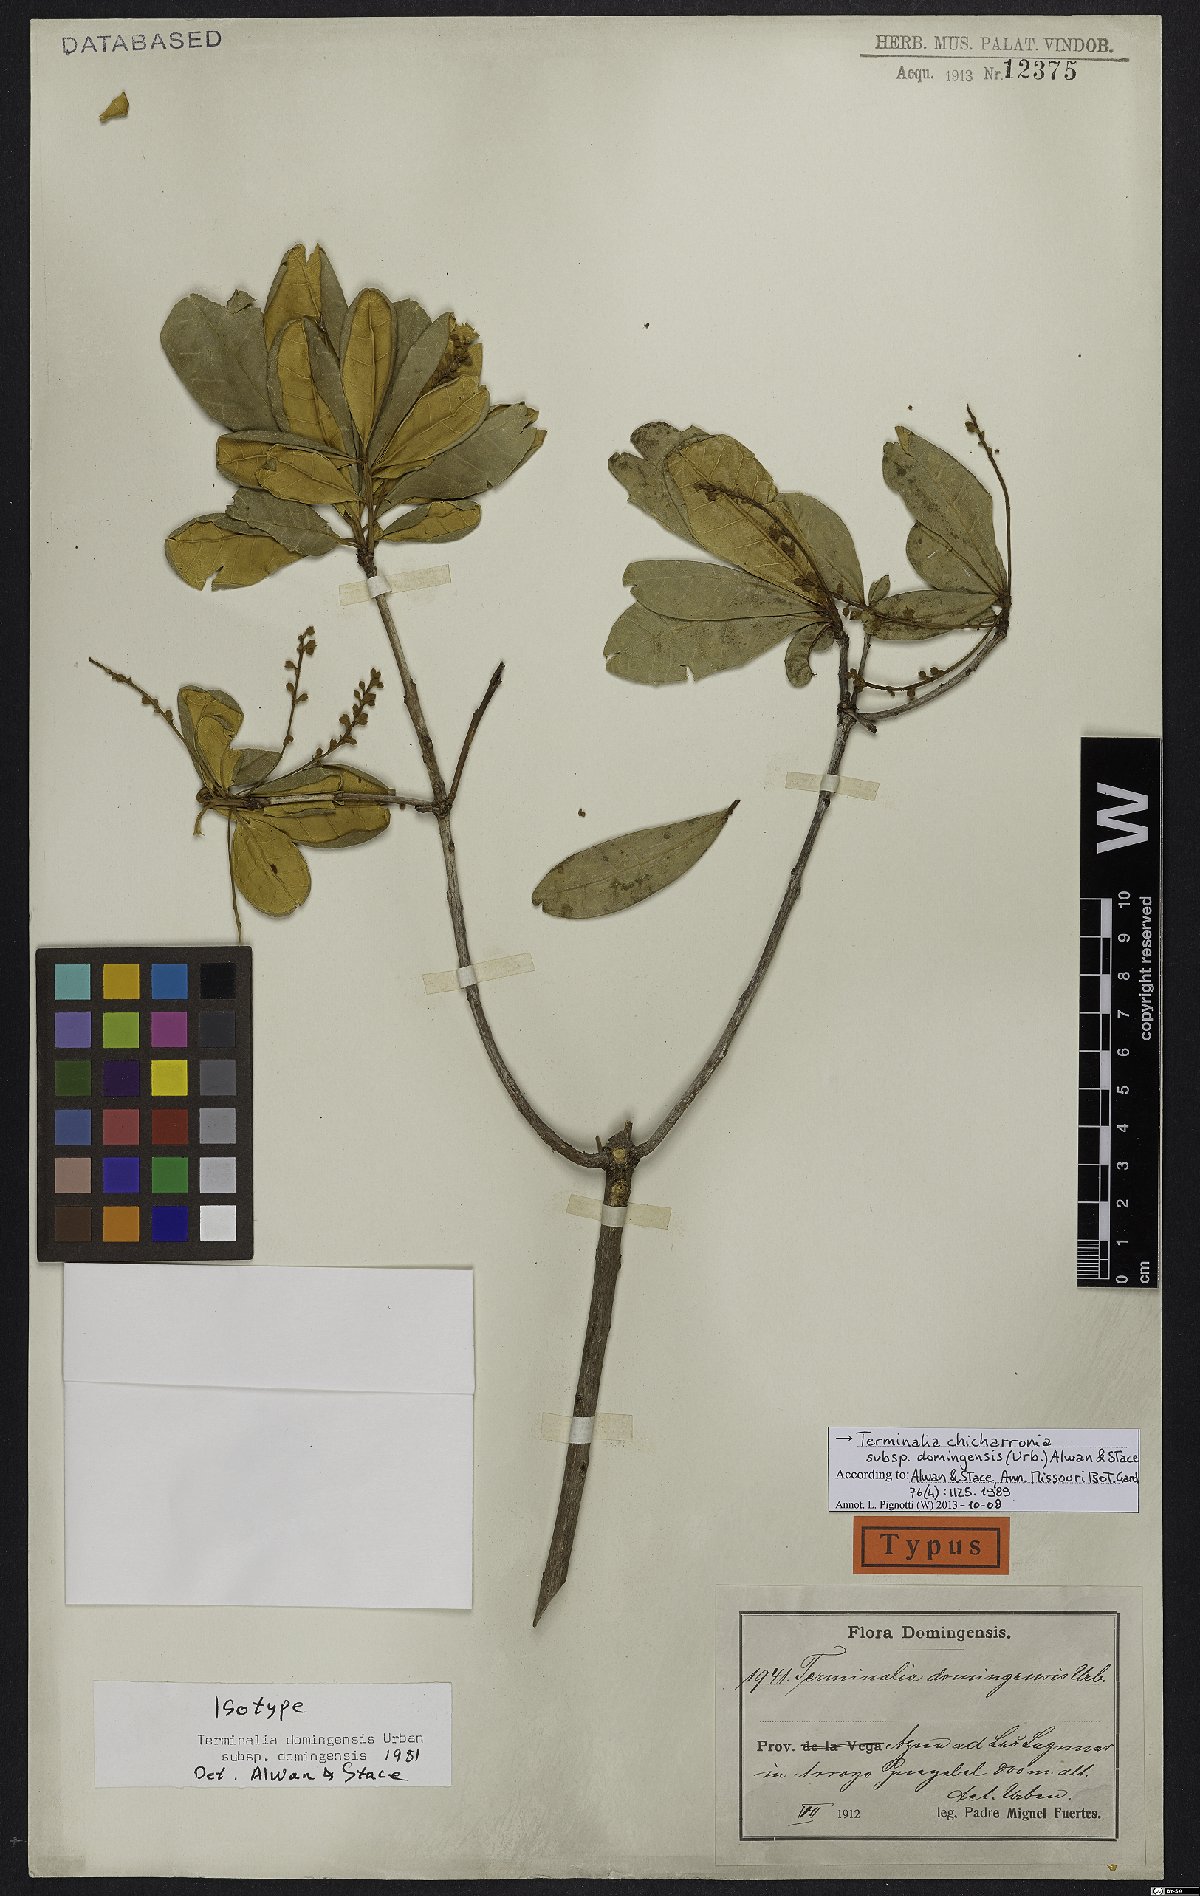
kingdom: Plantae
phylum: Tracheophyta
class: Magnoliopsida
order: Myrtales
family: Combretaceae
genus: Terminalia
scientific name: Terminalia domingensis
